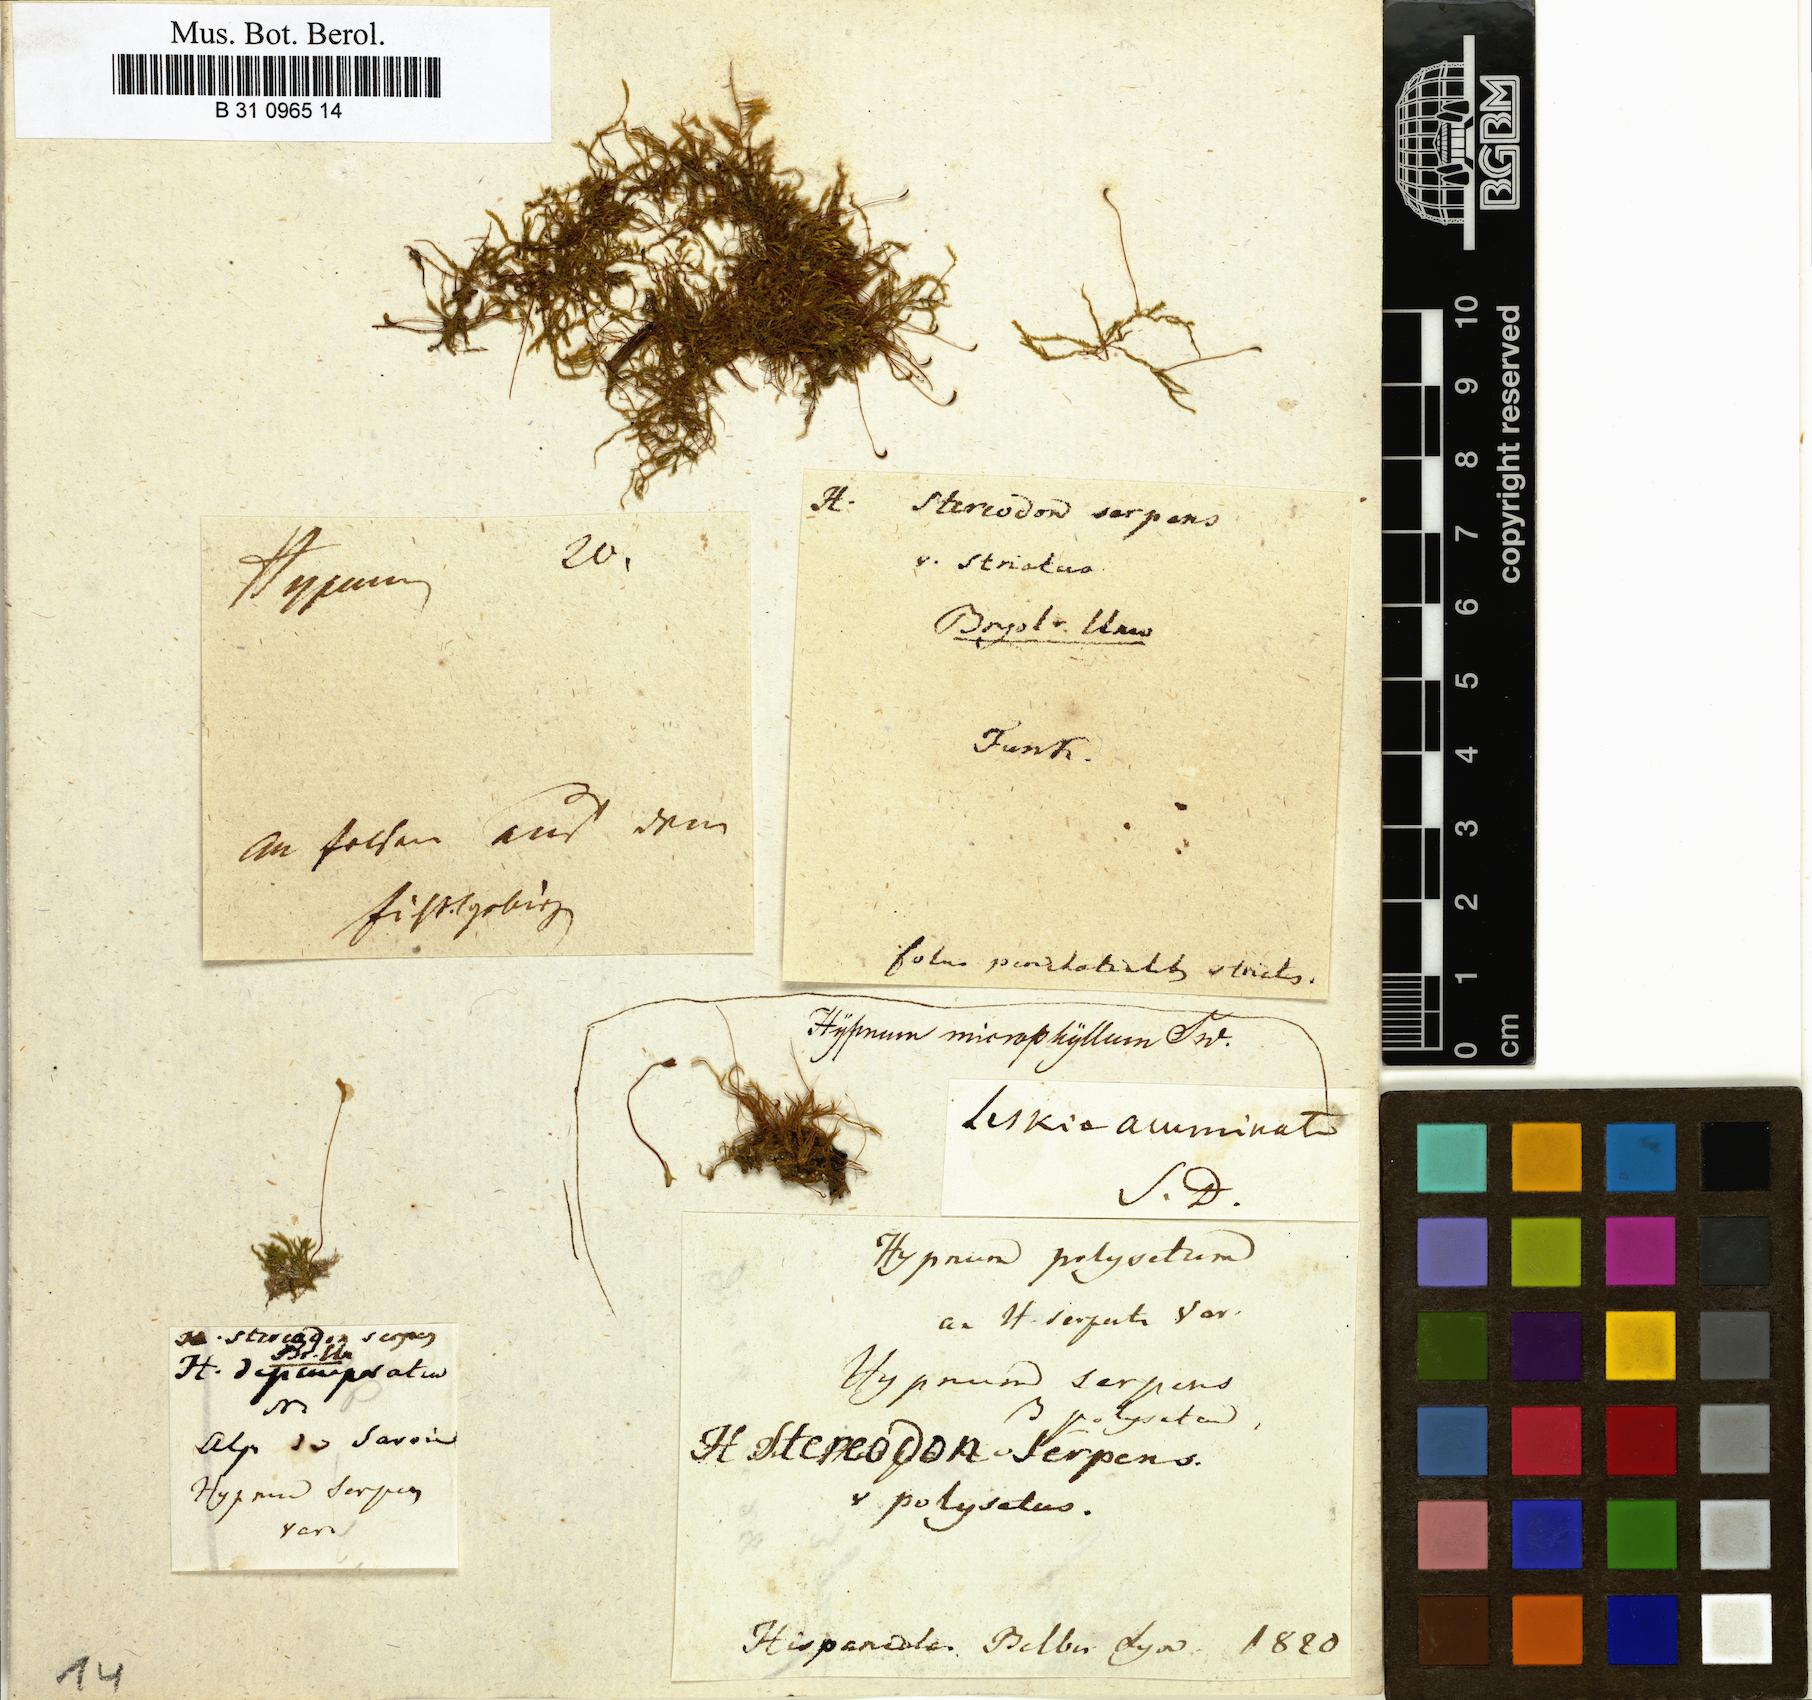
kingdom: Plantae
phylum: Bryophyta
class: Bryopsida
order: Hypnales
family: Amblystegiaceae
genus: Amblystegium
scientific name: Amblystegium serpens
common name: Jurkatzka's feather moss
